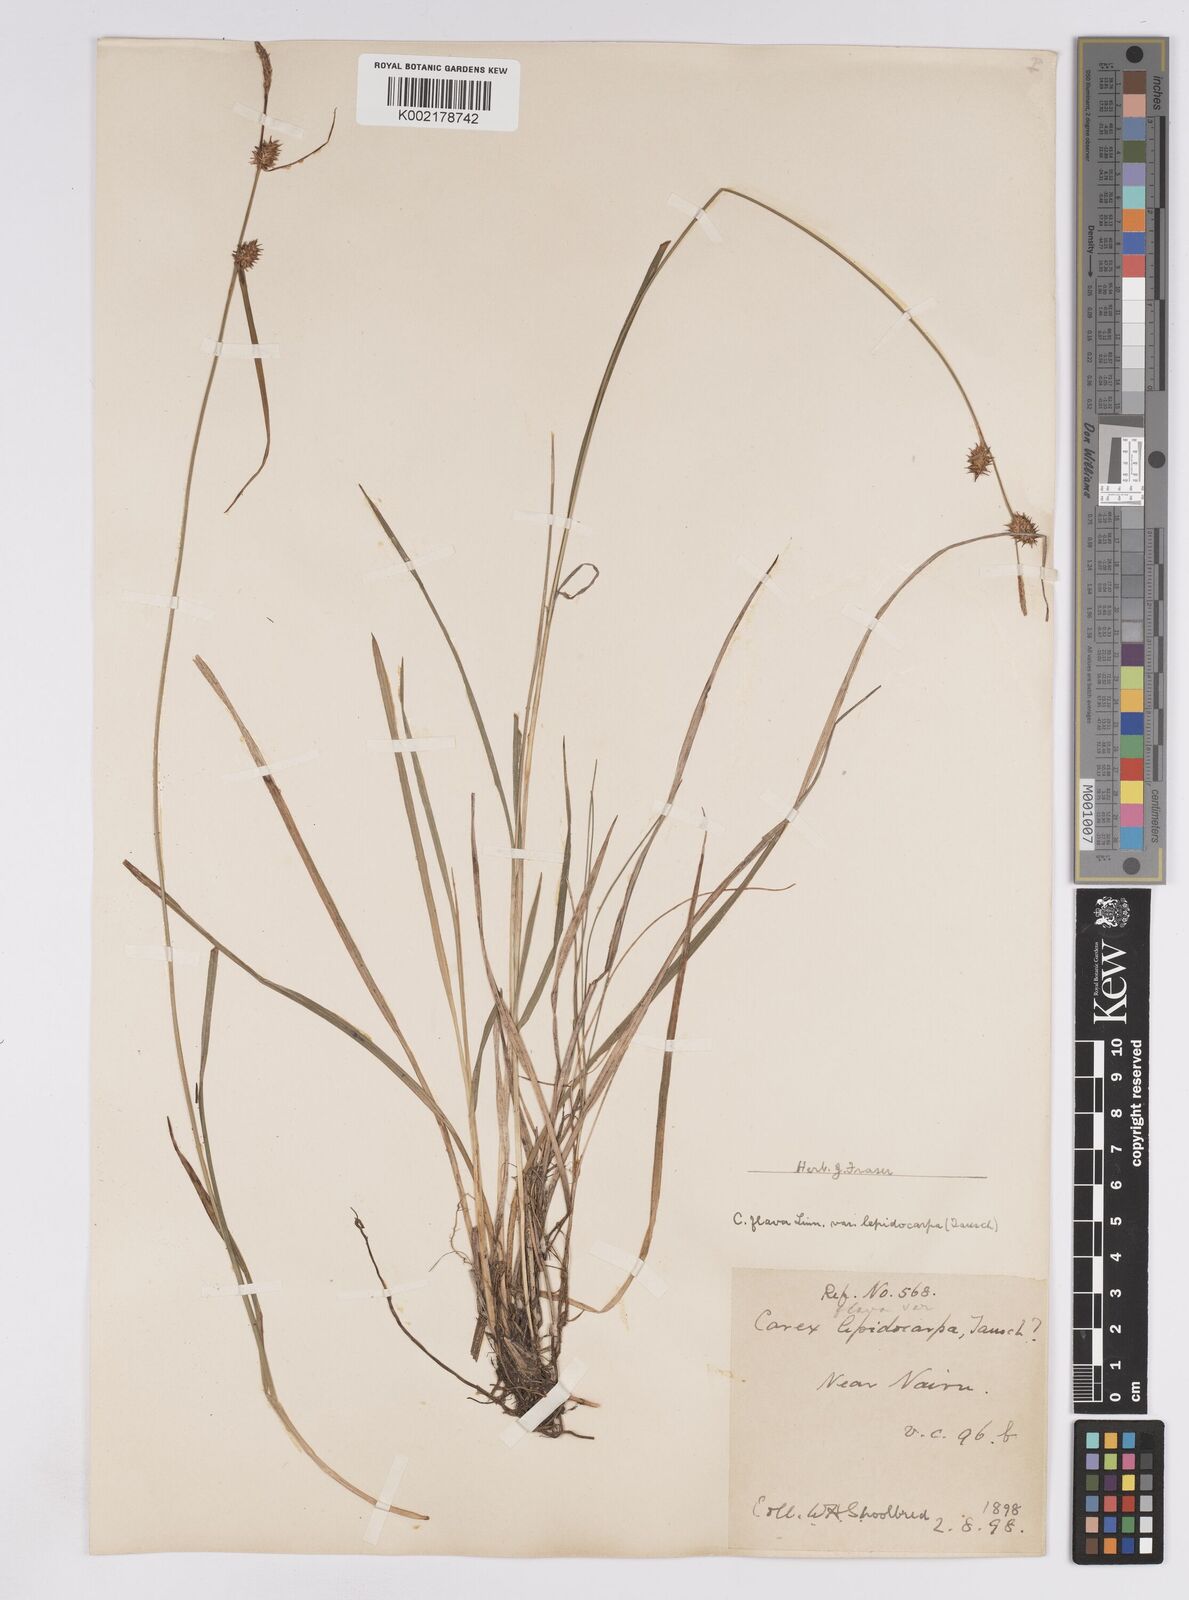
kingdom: Plantae
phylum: Tracheophyta
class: Liliopsida
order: Poales
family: Cyperaceae
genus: Carex
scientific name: Carex lepidocarpa
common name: Long-stalked yellow-sedge
